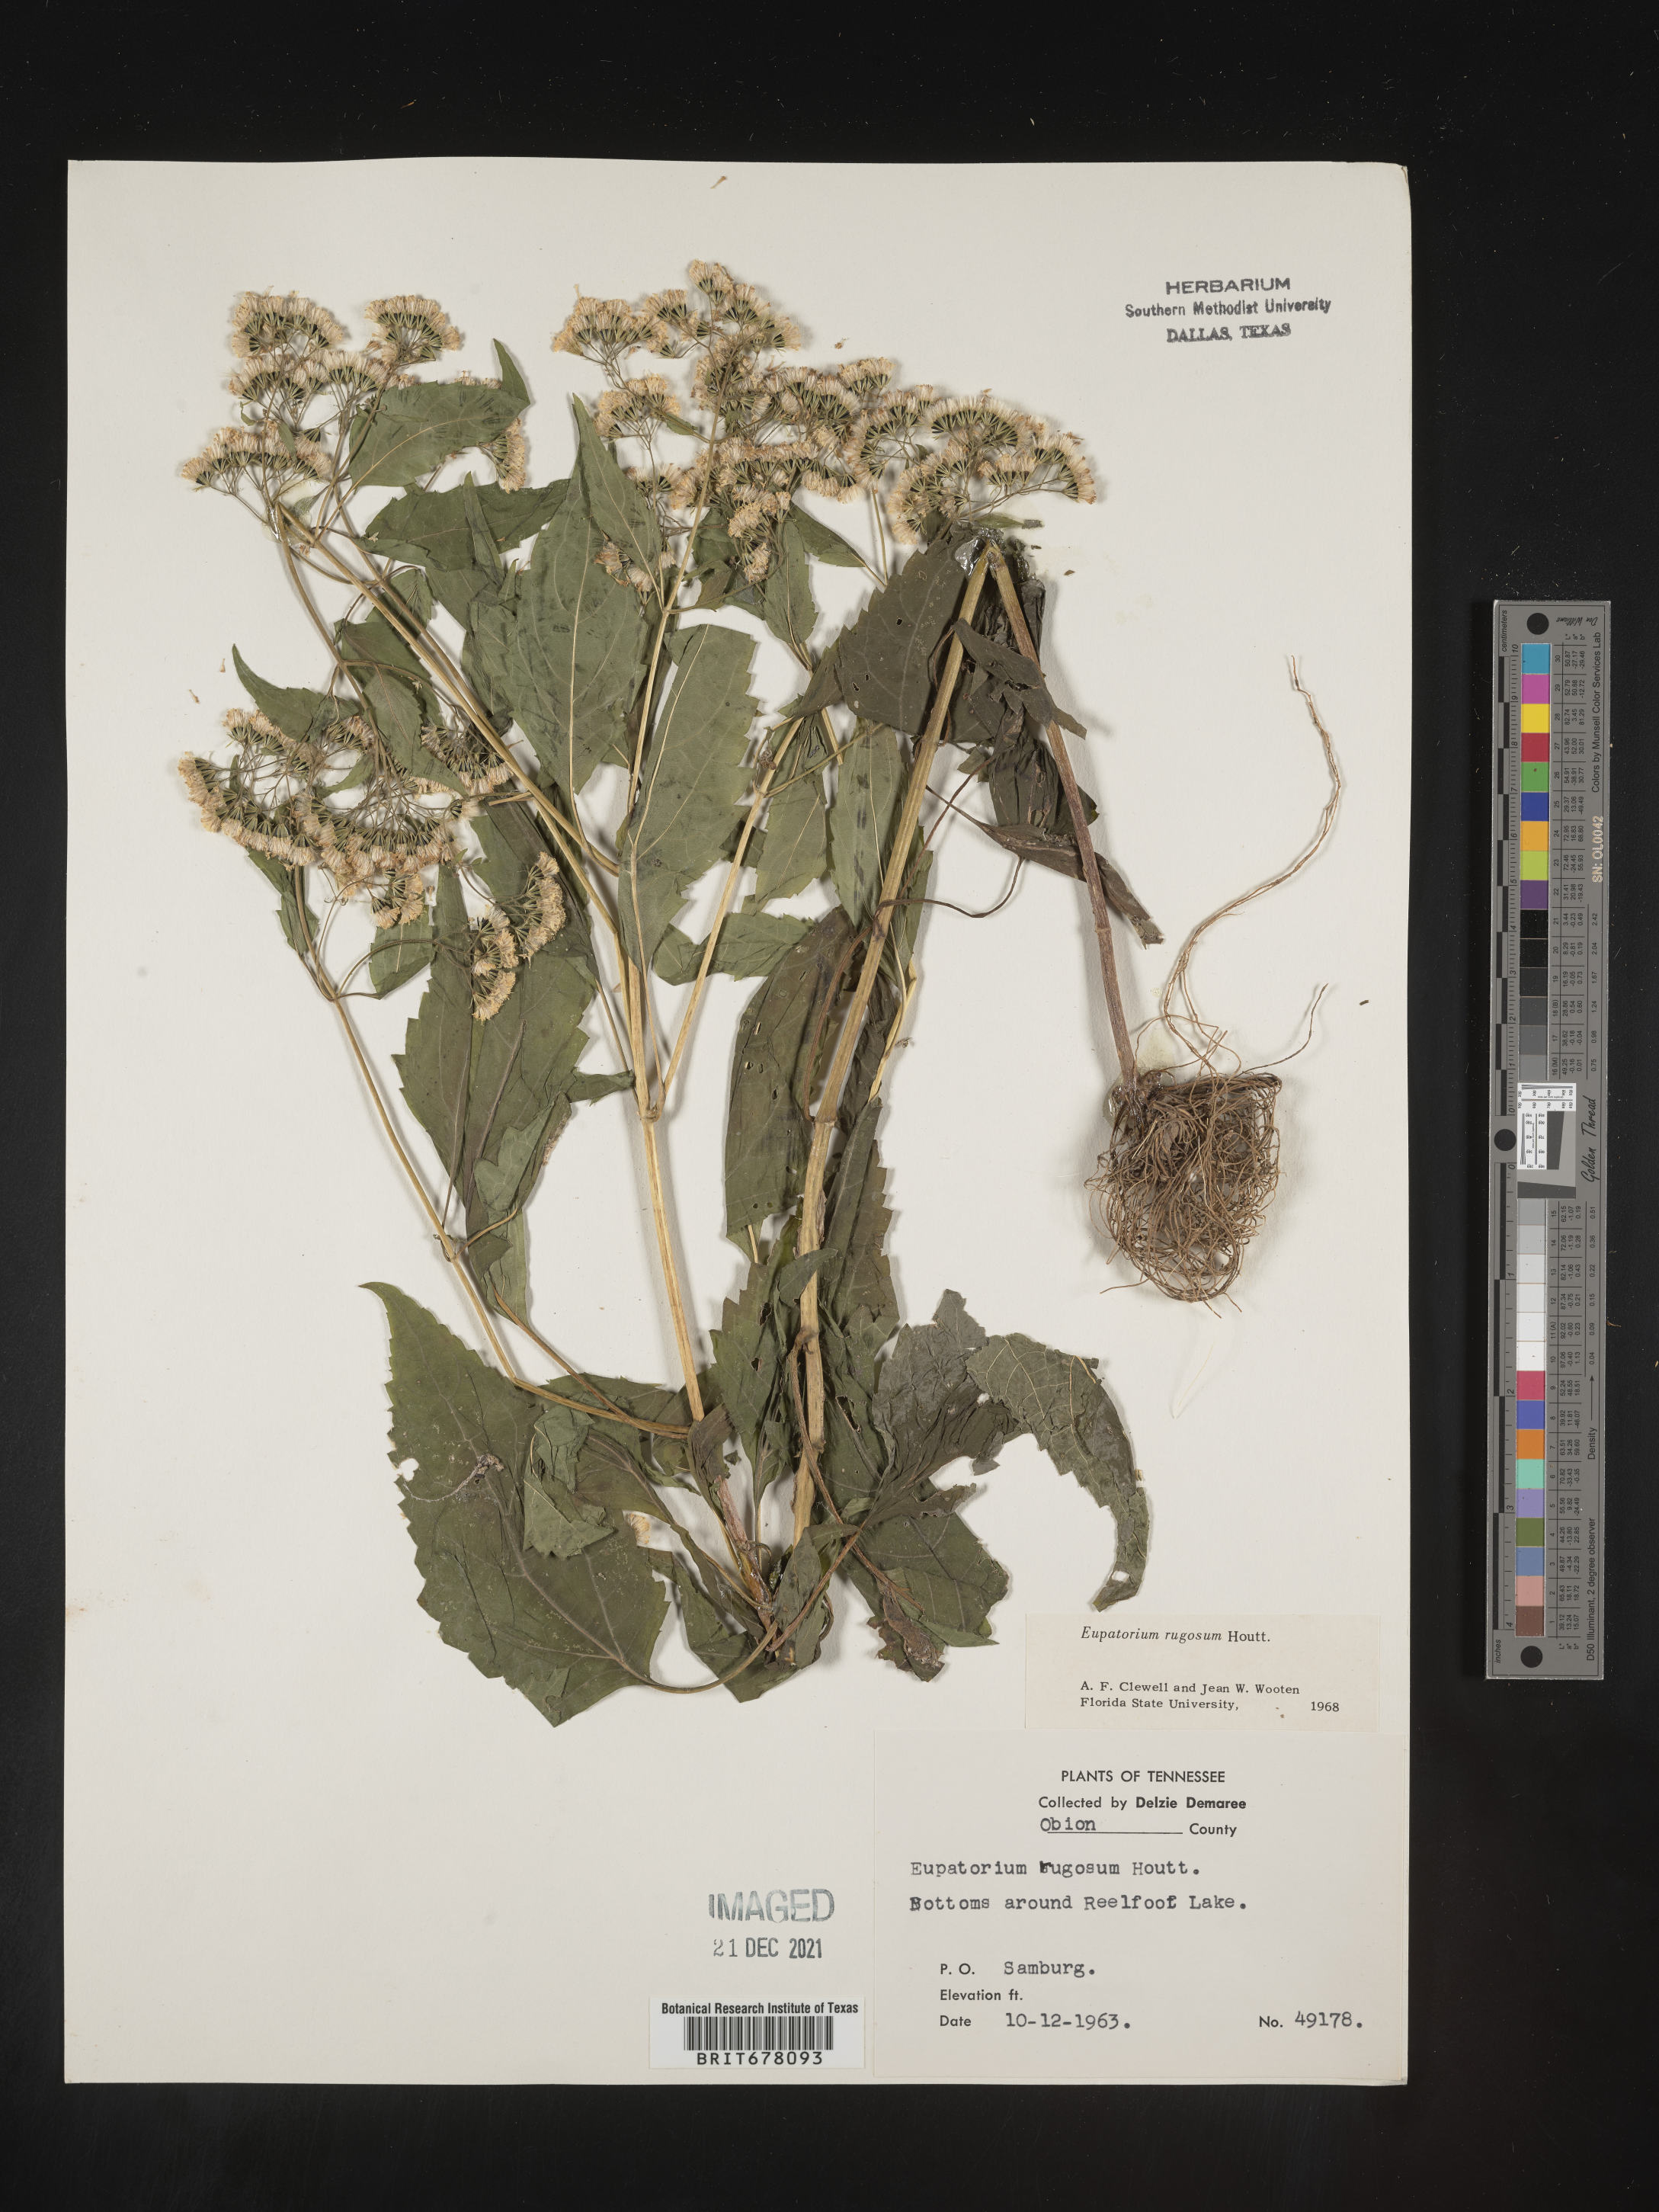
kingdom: Plantae
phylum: Tracheophyta
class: Magnoliopsida
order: Asterales
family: Asteraceae
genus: Eupatorium
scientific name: Eupatorium
